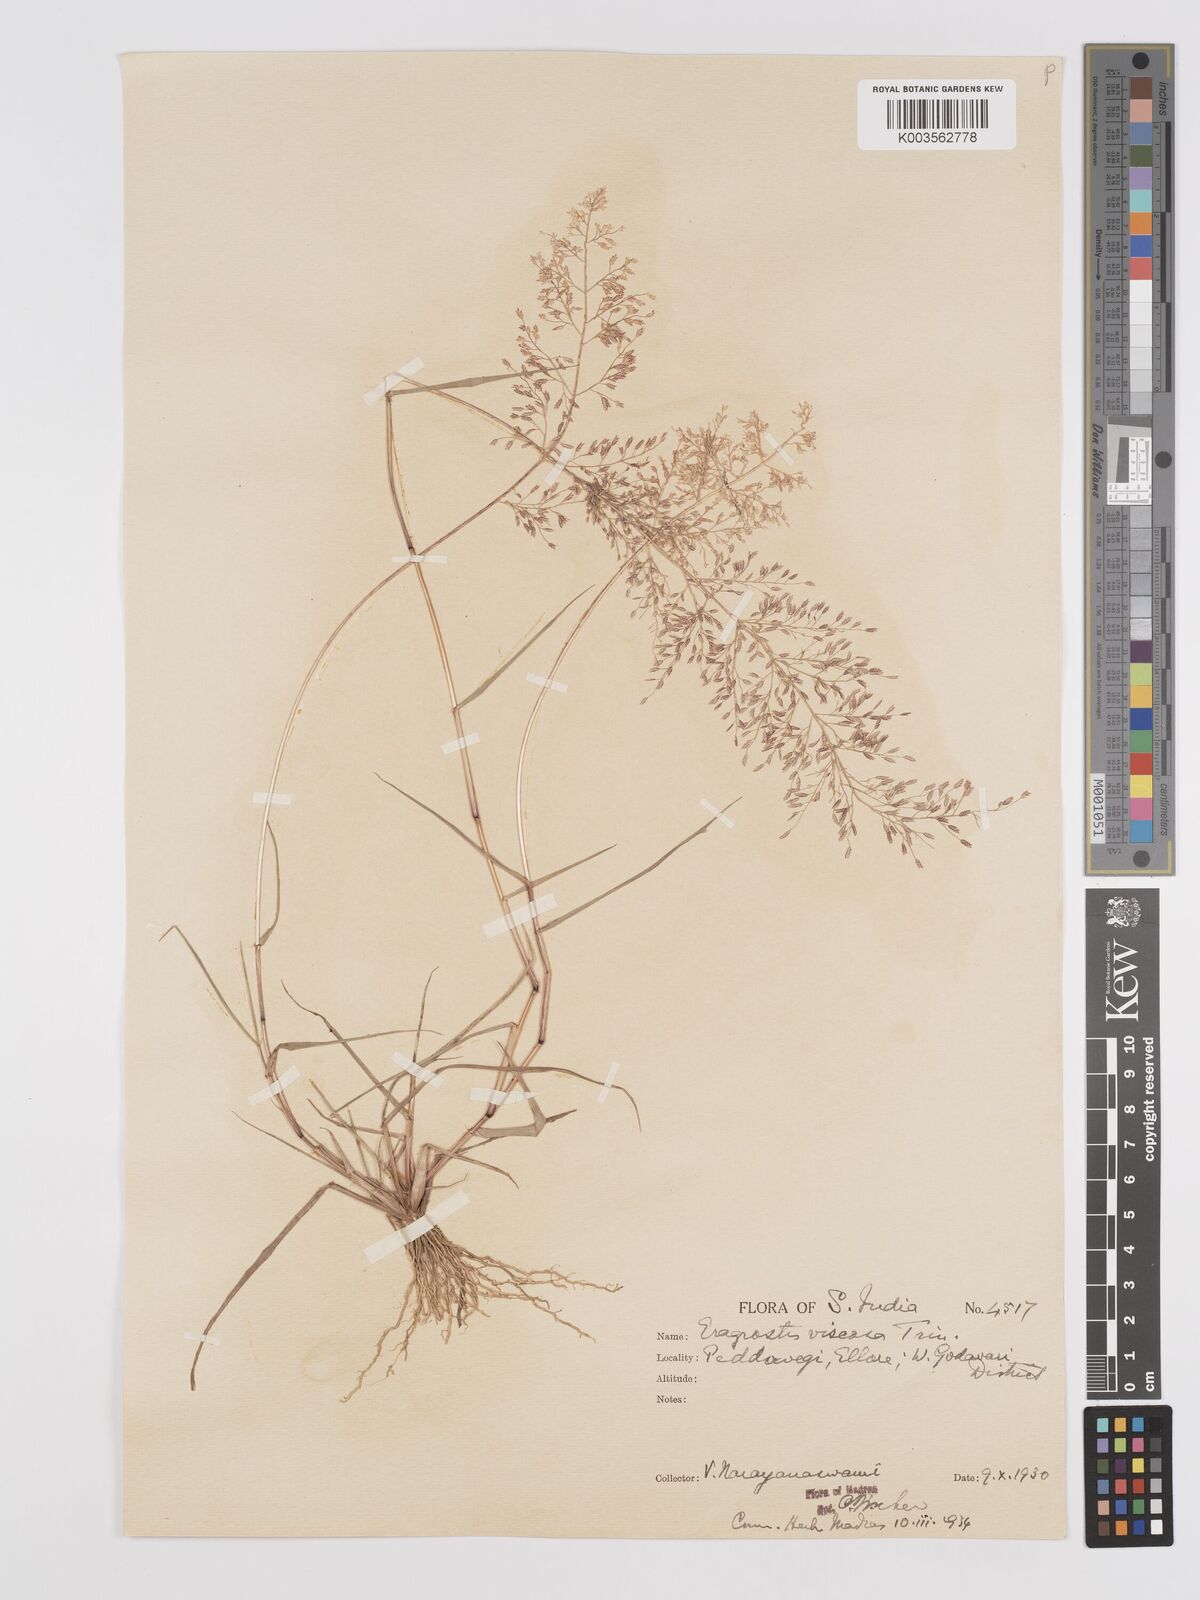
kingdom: Plantae
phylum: Tracheophyta
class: Liliopsida
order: Poales
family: Poaceae
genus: Eragrostis
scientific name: Eragrostis viscosa
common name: Sticky love grass
